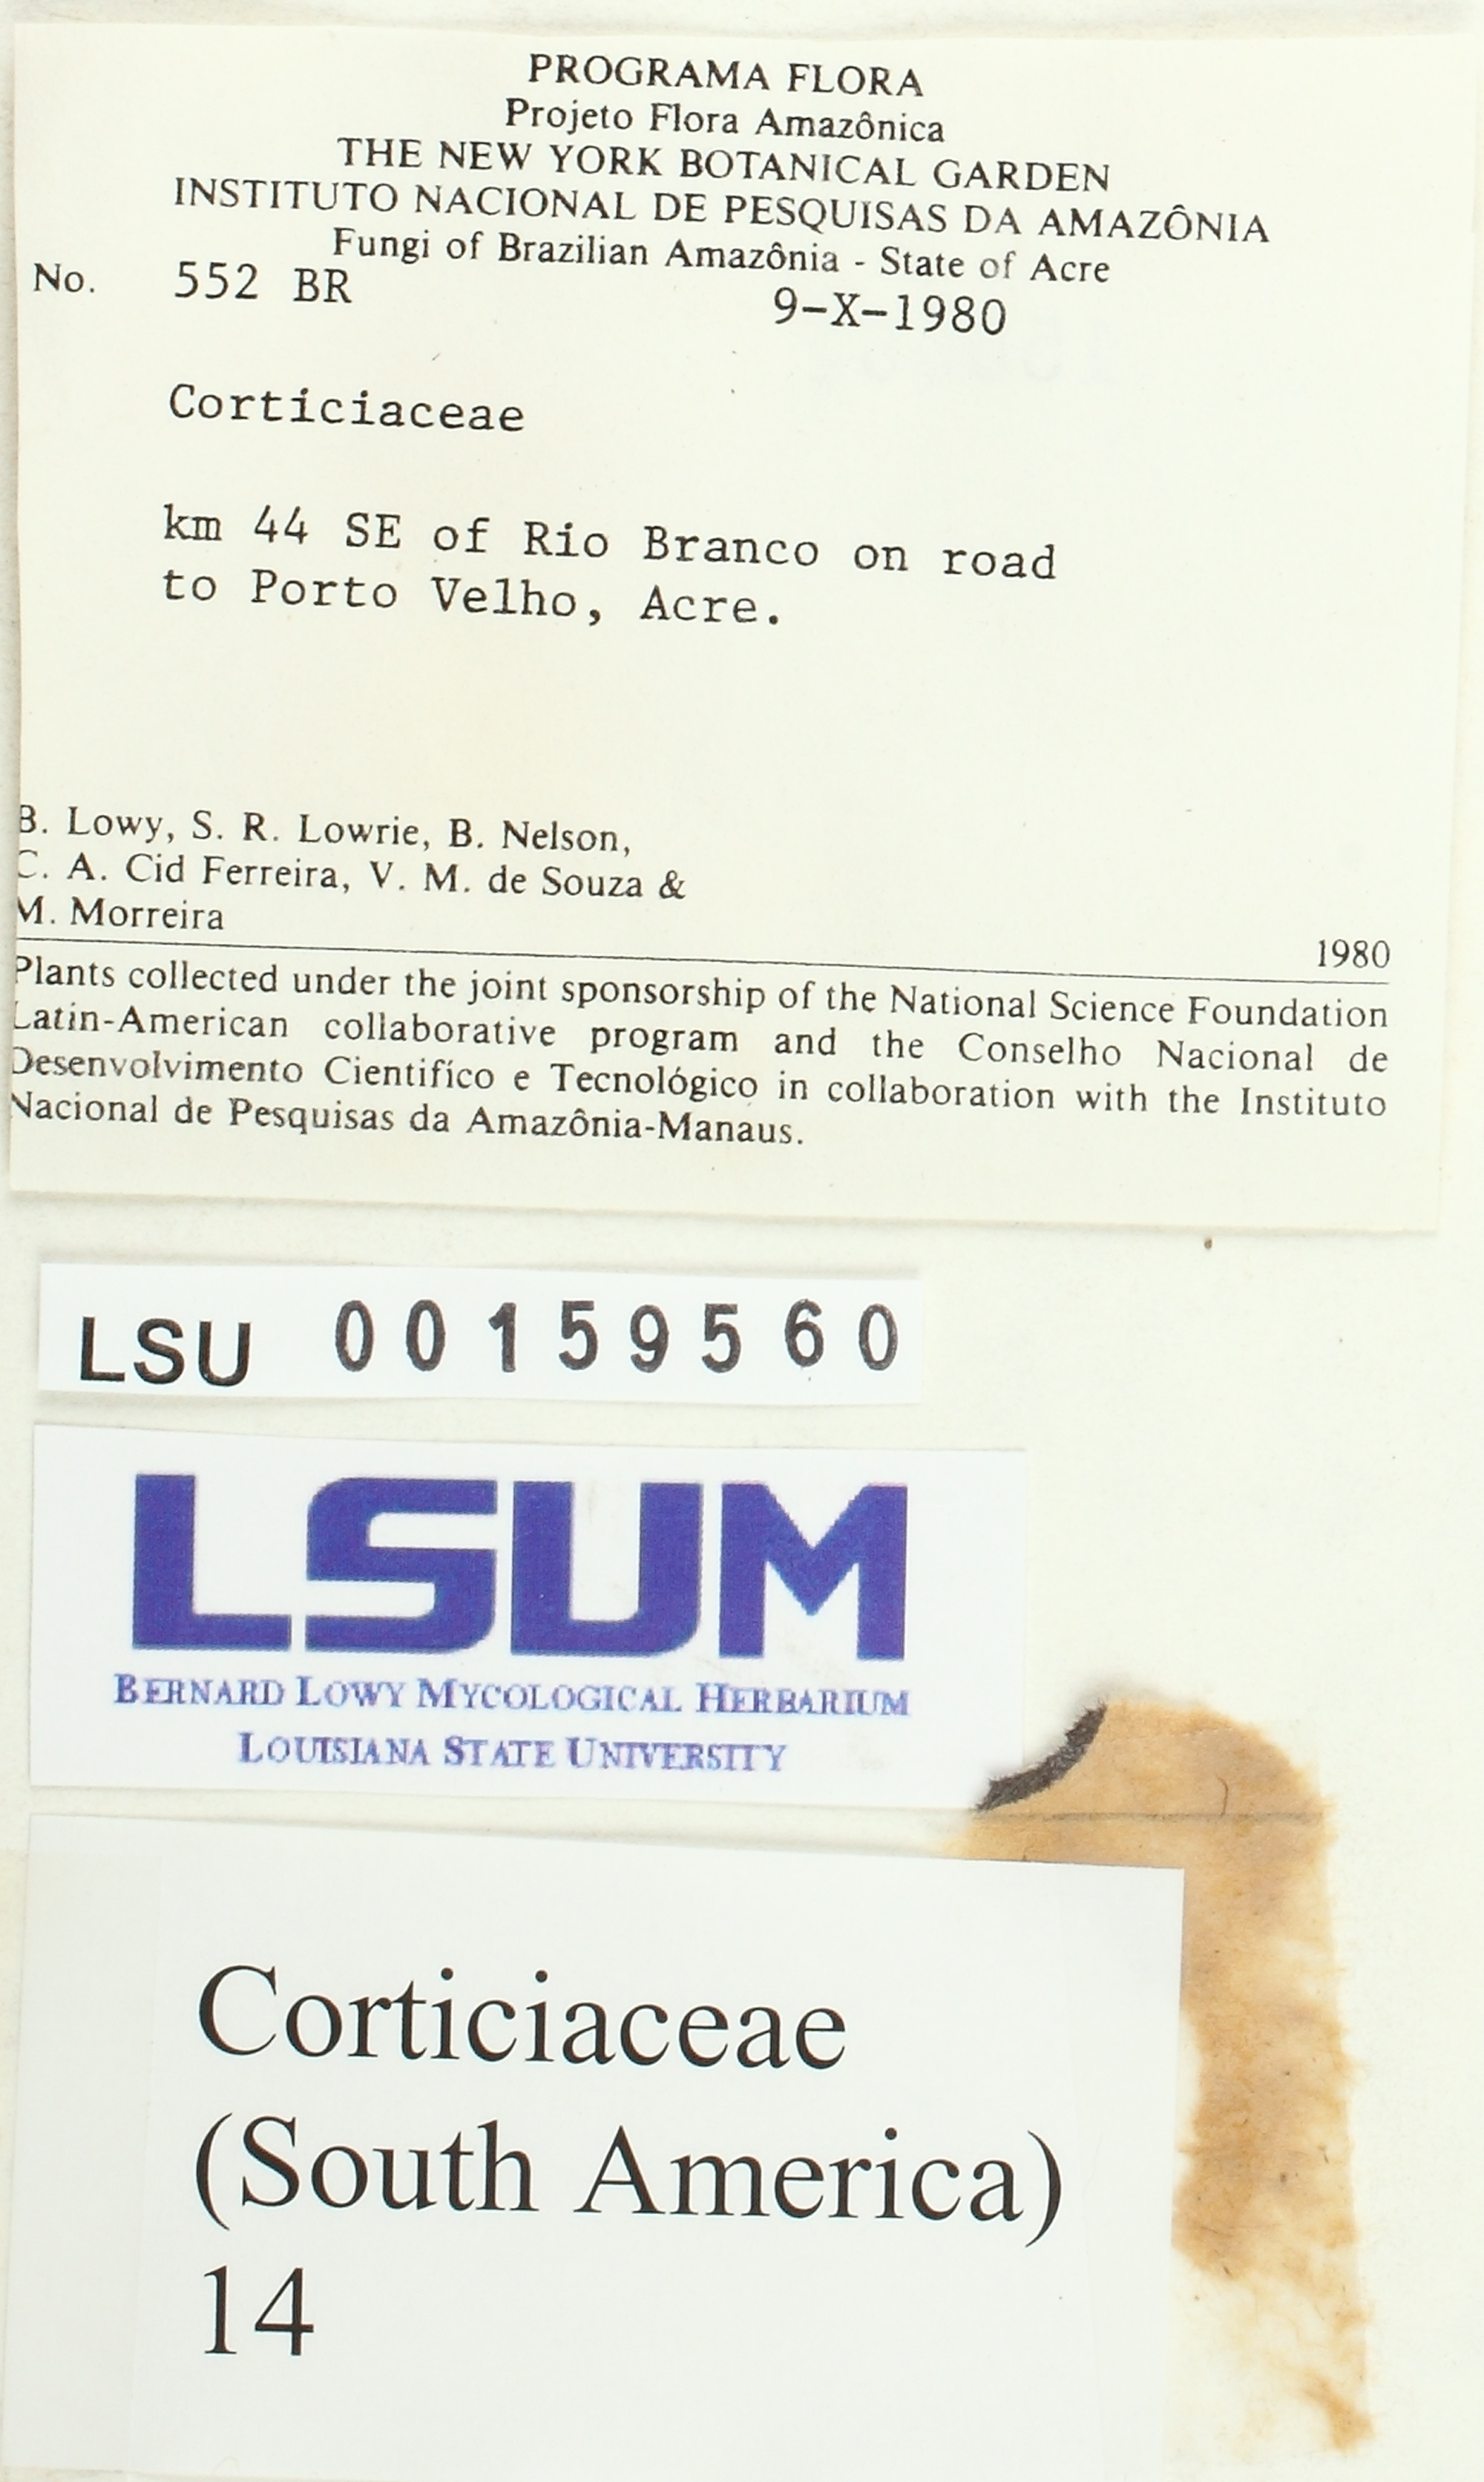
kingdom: Fungi
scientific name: Fungi
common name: Fungi
